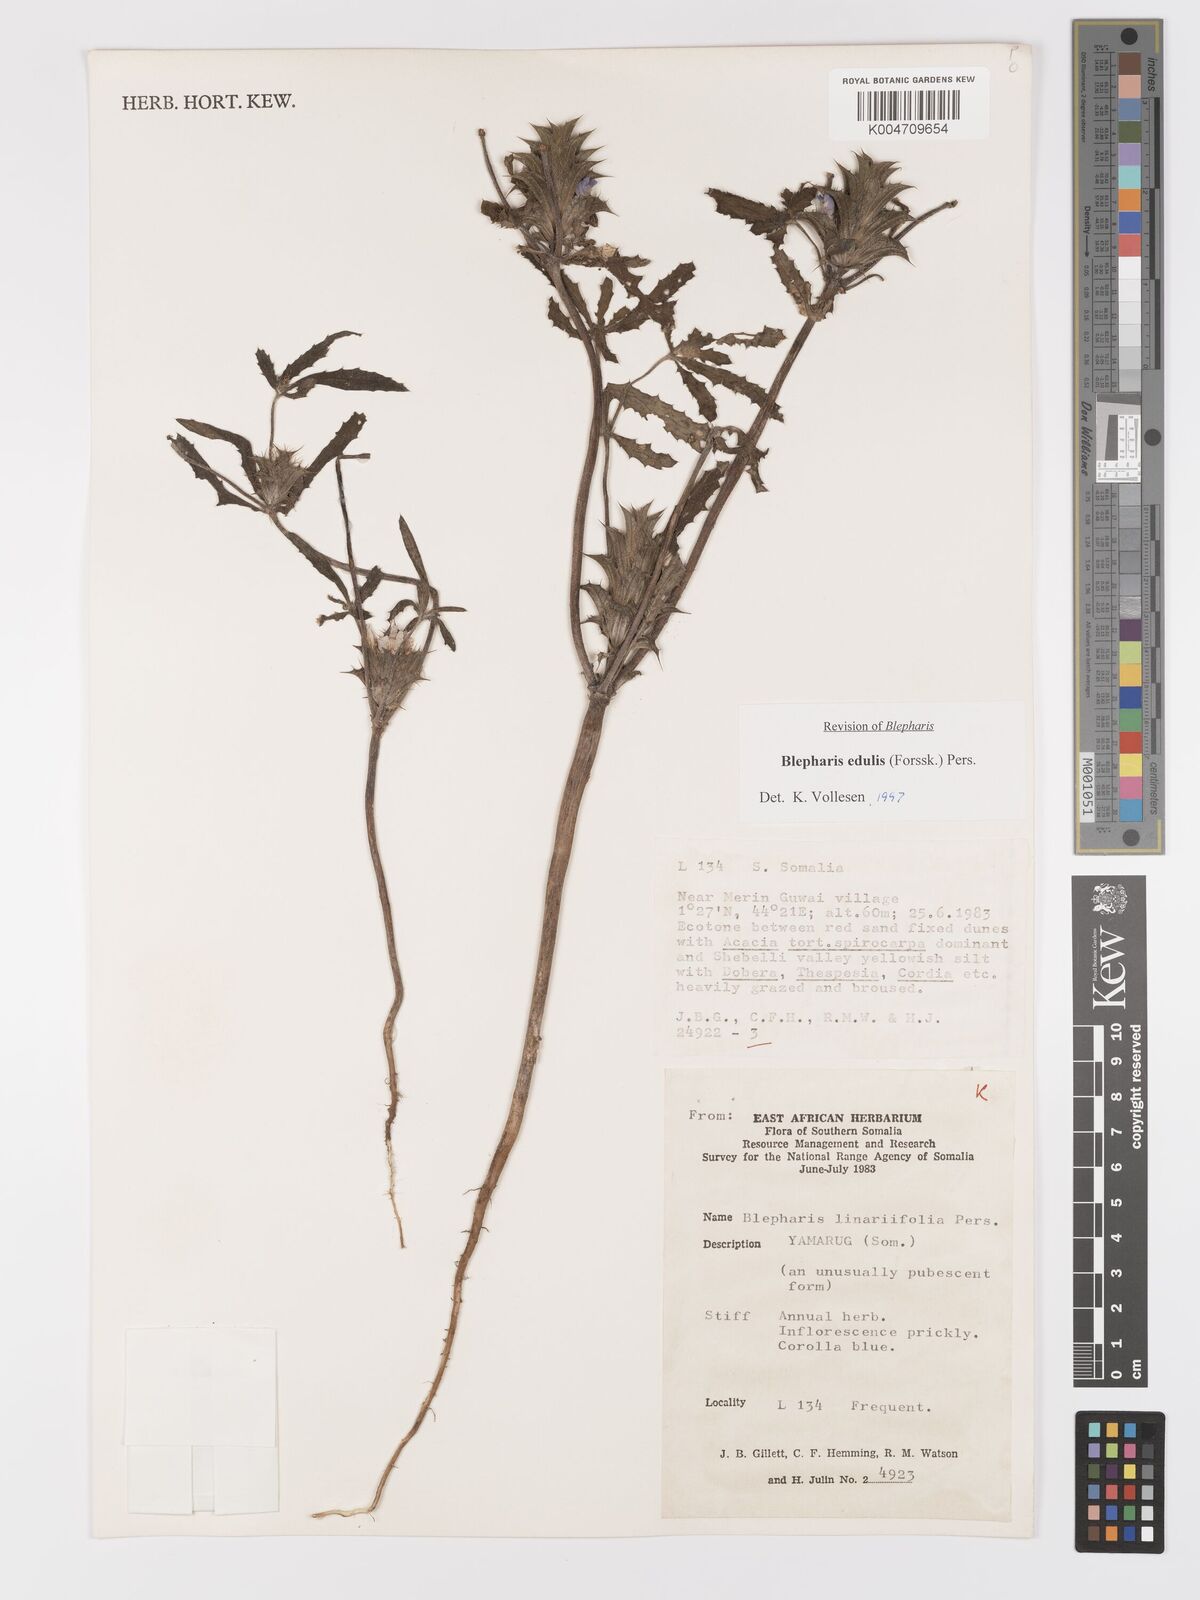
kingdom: Plantae
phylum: Tracheophyta
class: Magnoliopsida
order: Lamiales
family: Acanthaceae
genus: Blepharis
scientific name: Blepharis edulis
